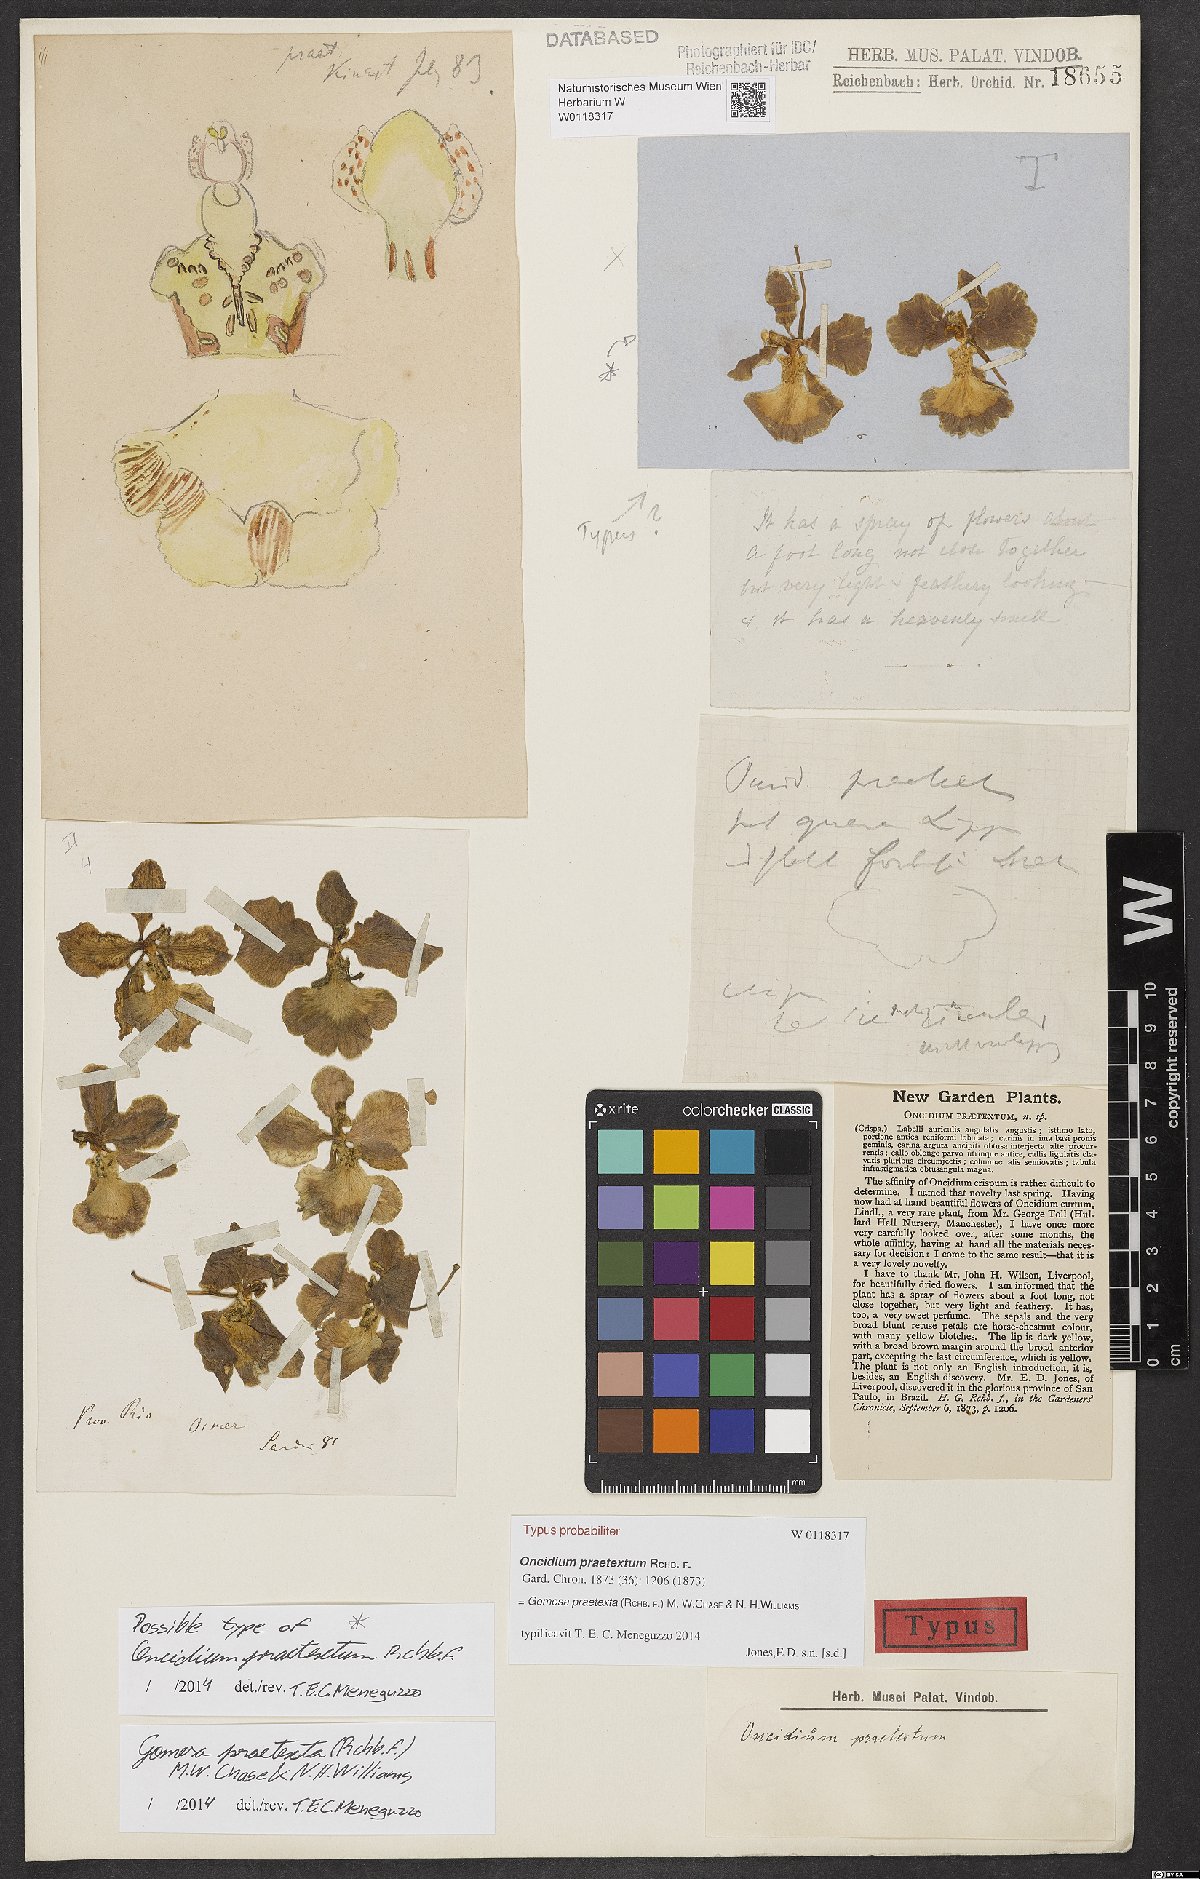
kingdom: Plantae
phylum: Tracheophyta
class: Liliopsida
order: Asparagales
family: Orchidaceae
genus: Gomesa
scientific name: Gomesa praetexta
